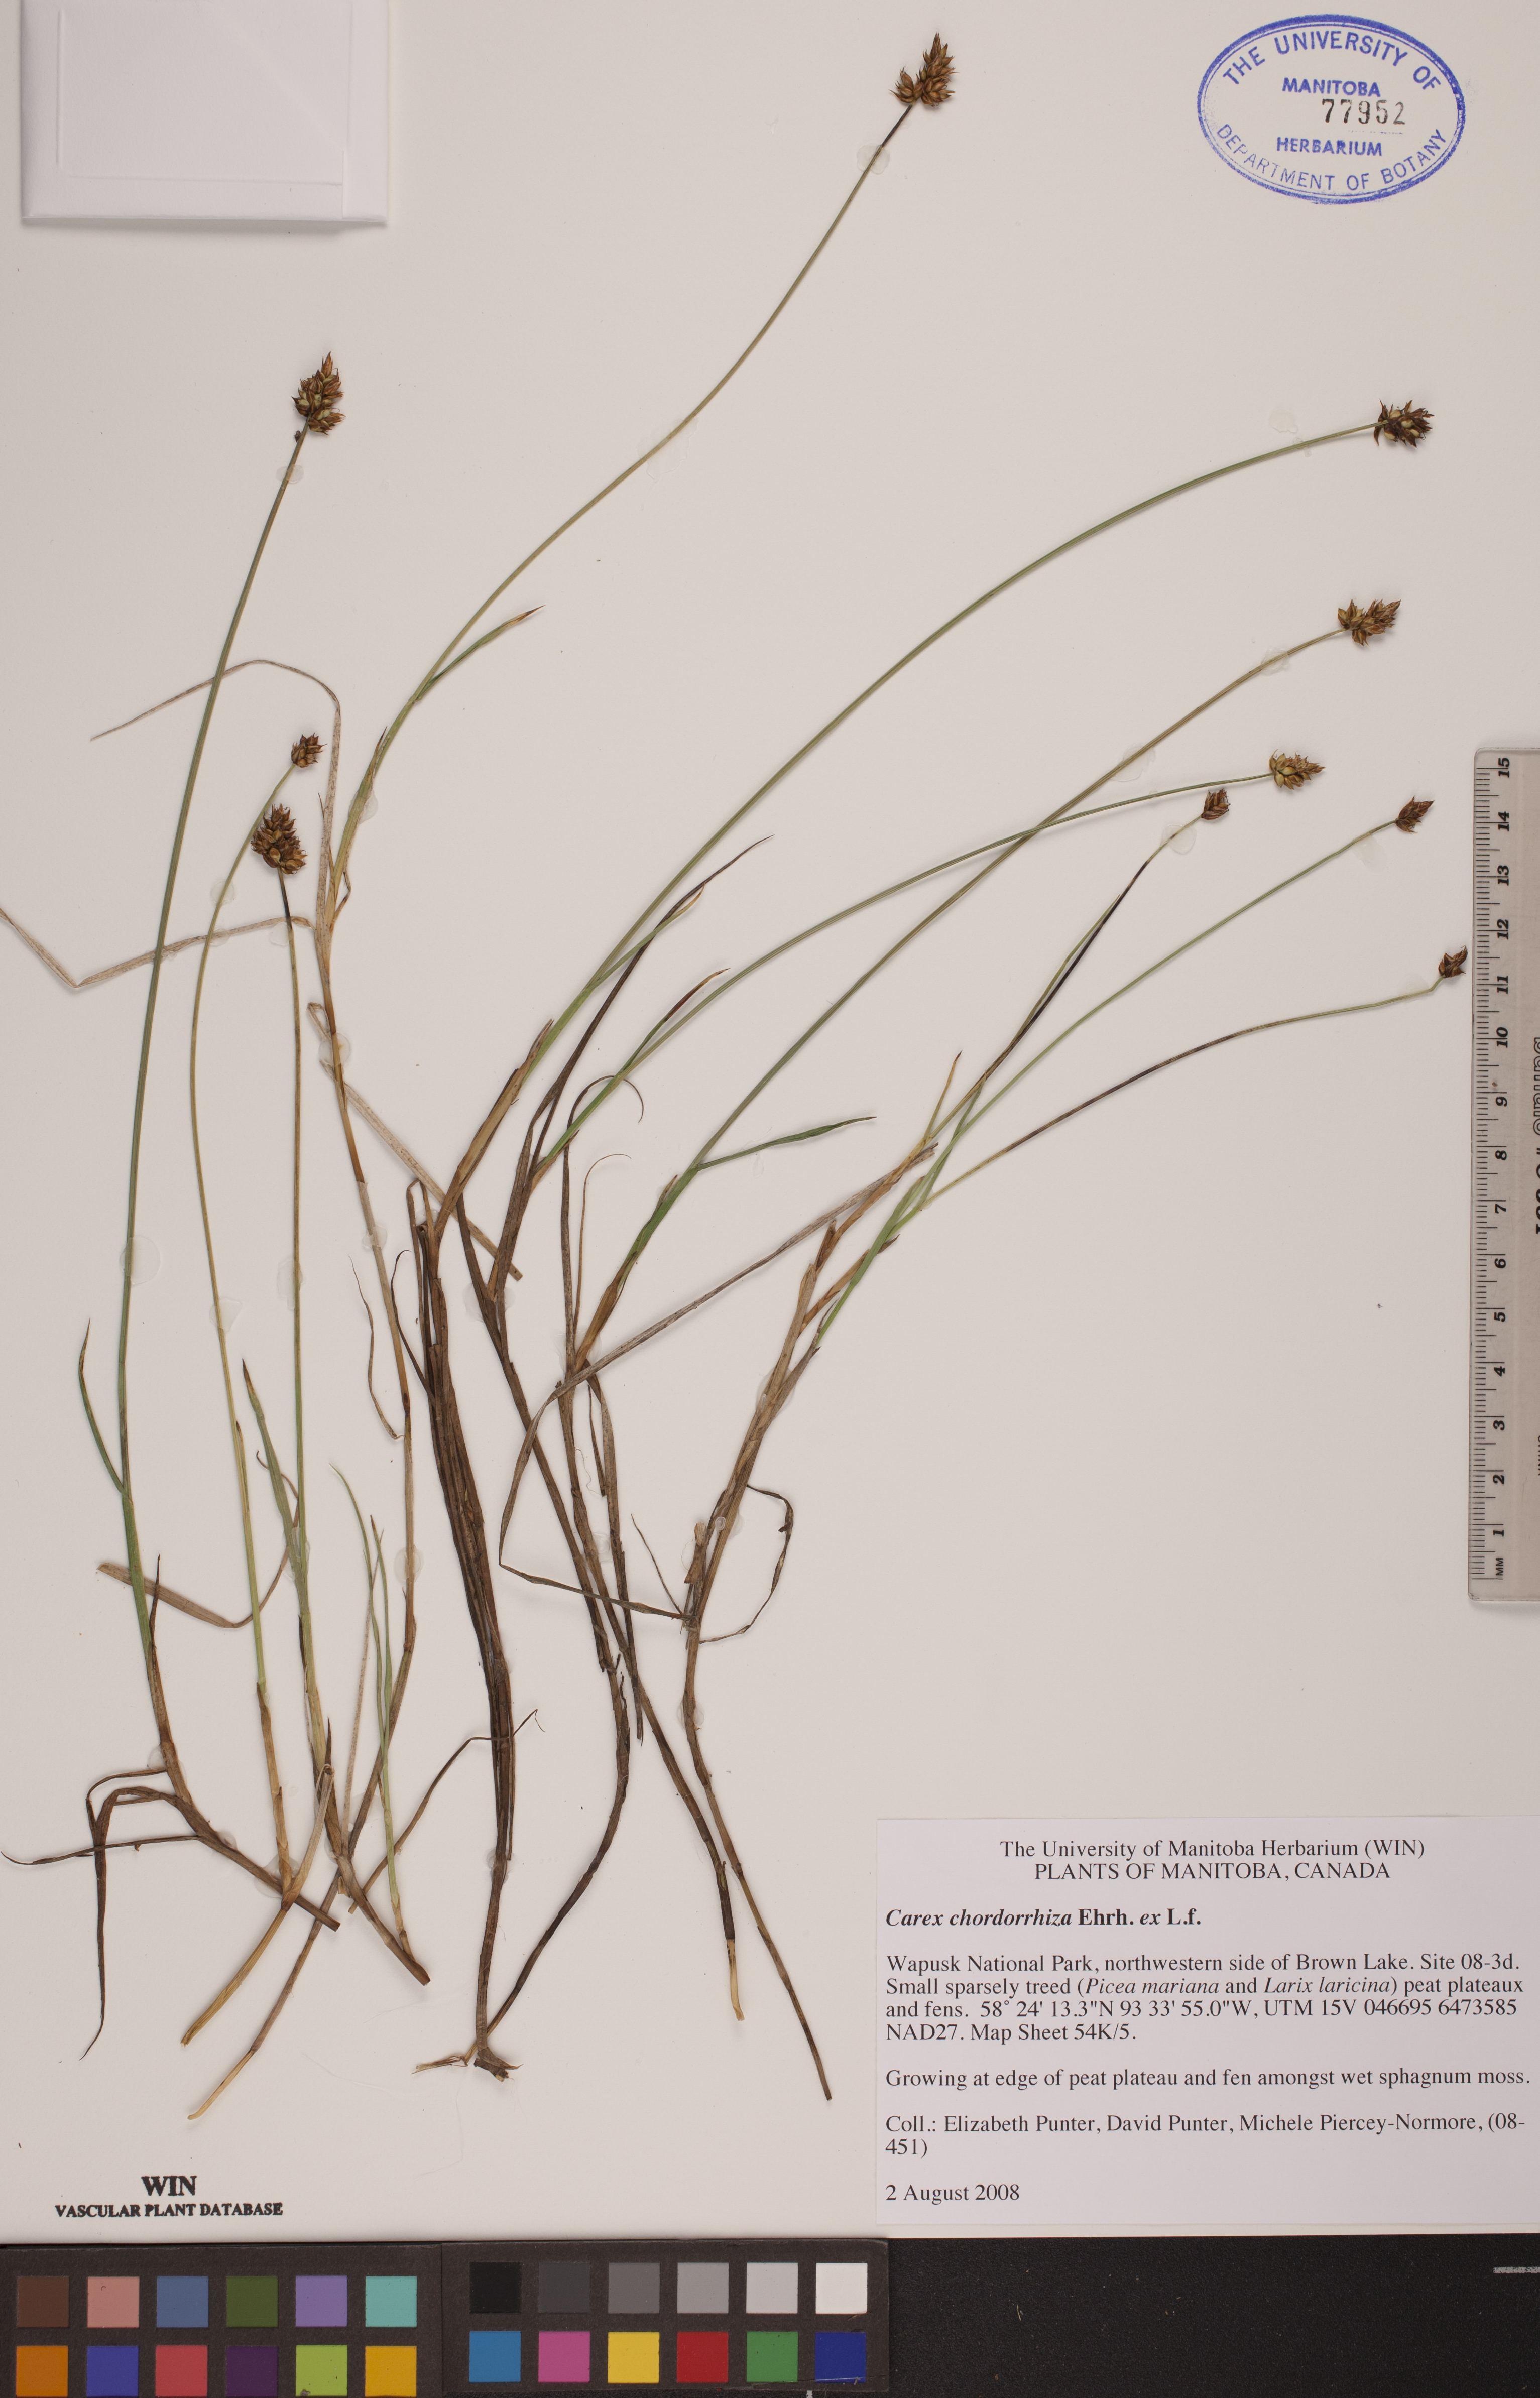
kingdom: Plantae
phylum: Tracheophyta
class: Liliopsida
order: Poales
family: Cyperaceae
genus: Carex
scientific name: Carex utriculata
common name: Beaked sedge
